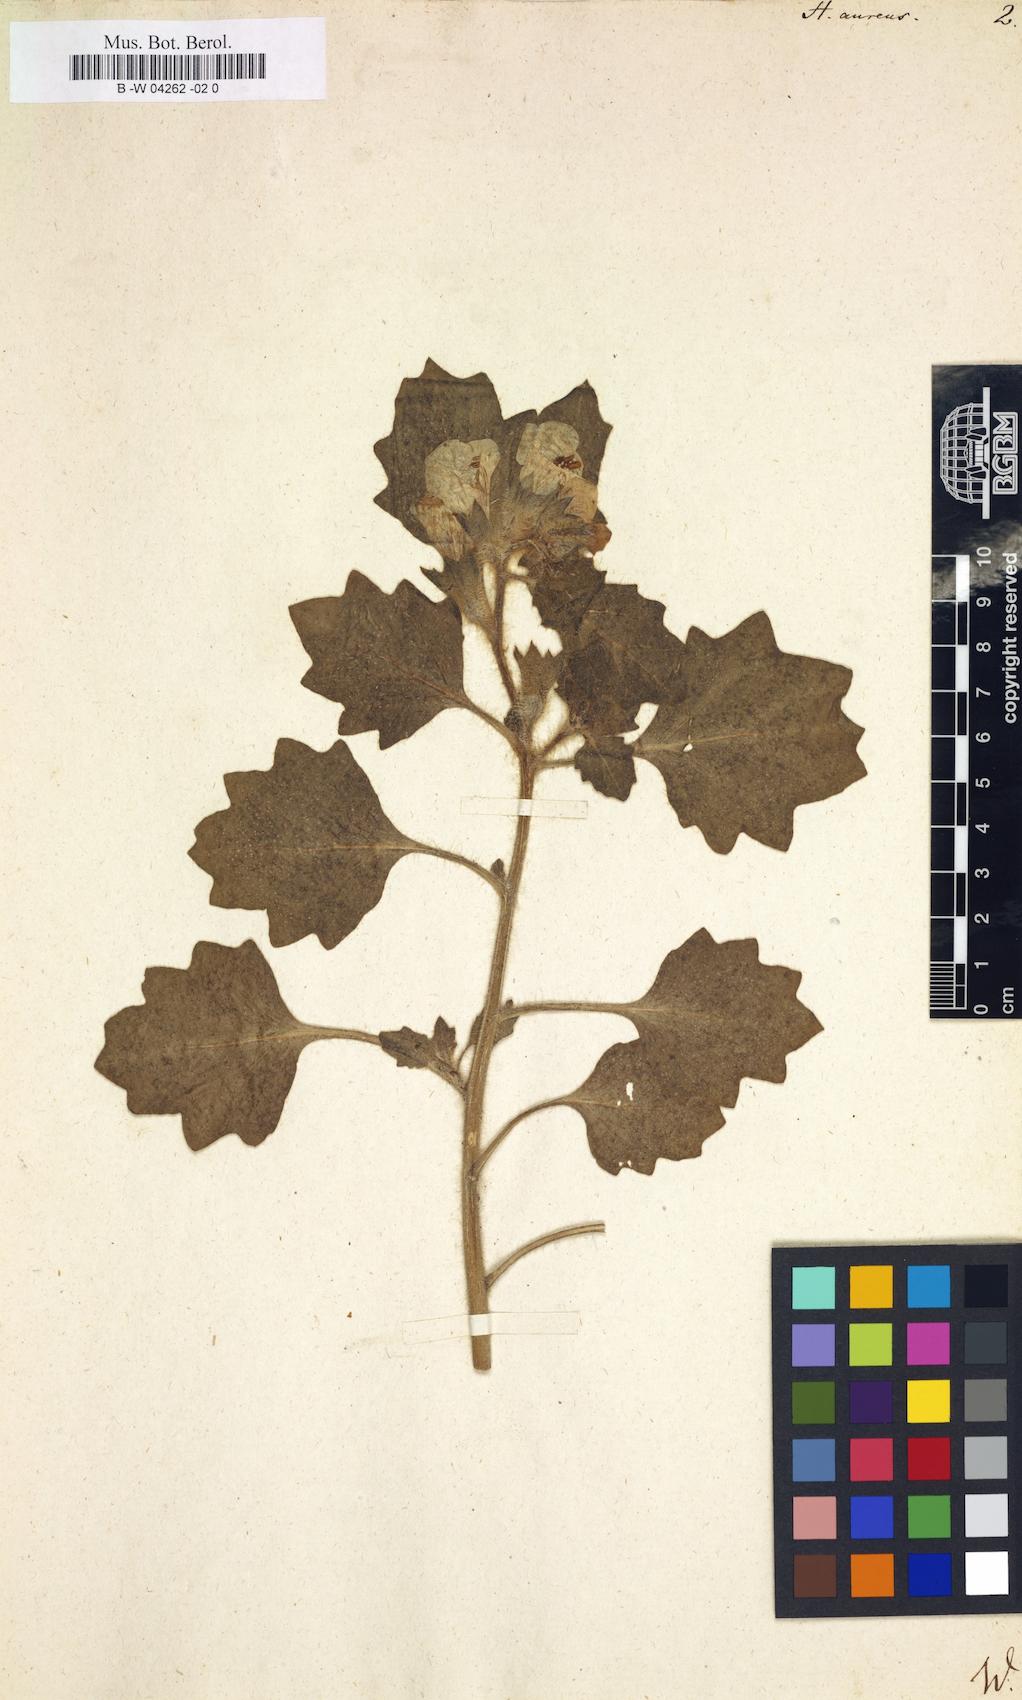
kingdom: Plantae
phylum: Tracheophyta
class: Magnoliopsida
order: Solanales
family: Solanaceae
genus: Hyoscyamus
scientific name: Hyoscyamus aureus
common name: Golden henbane
